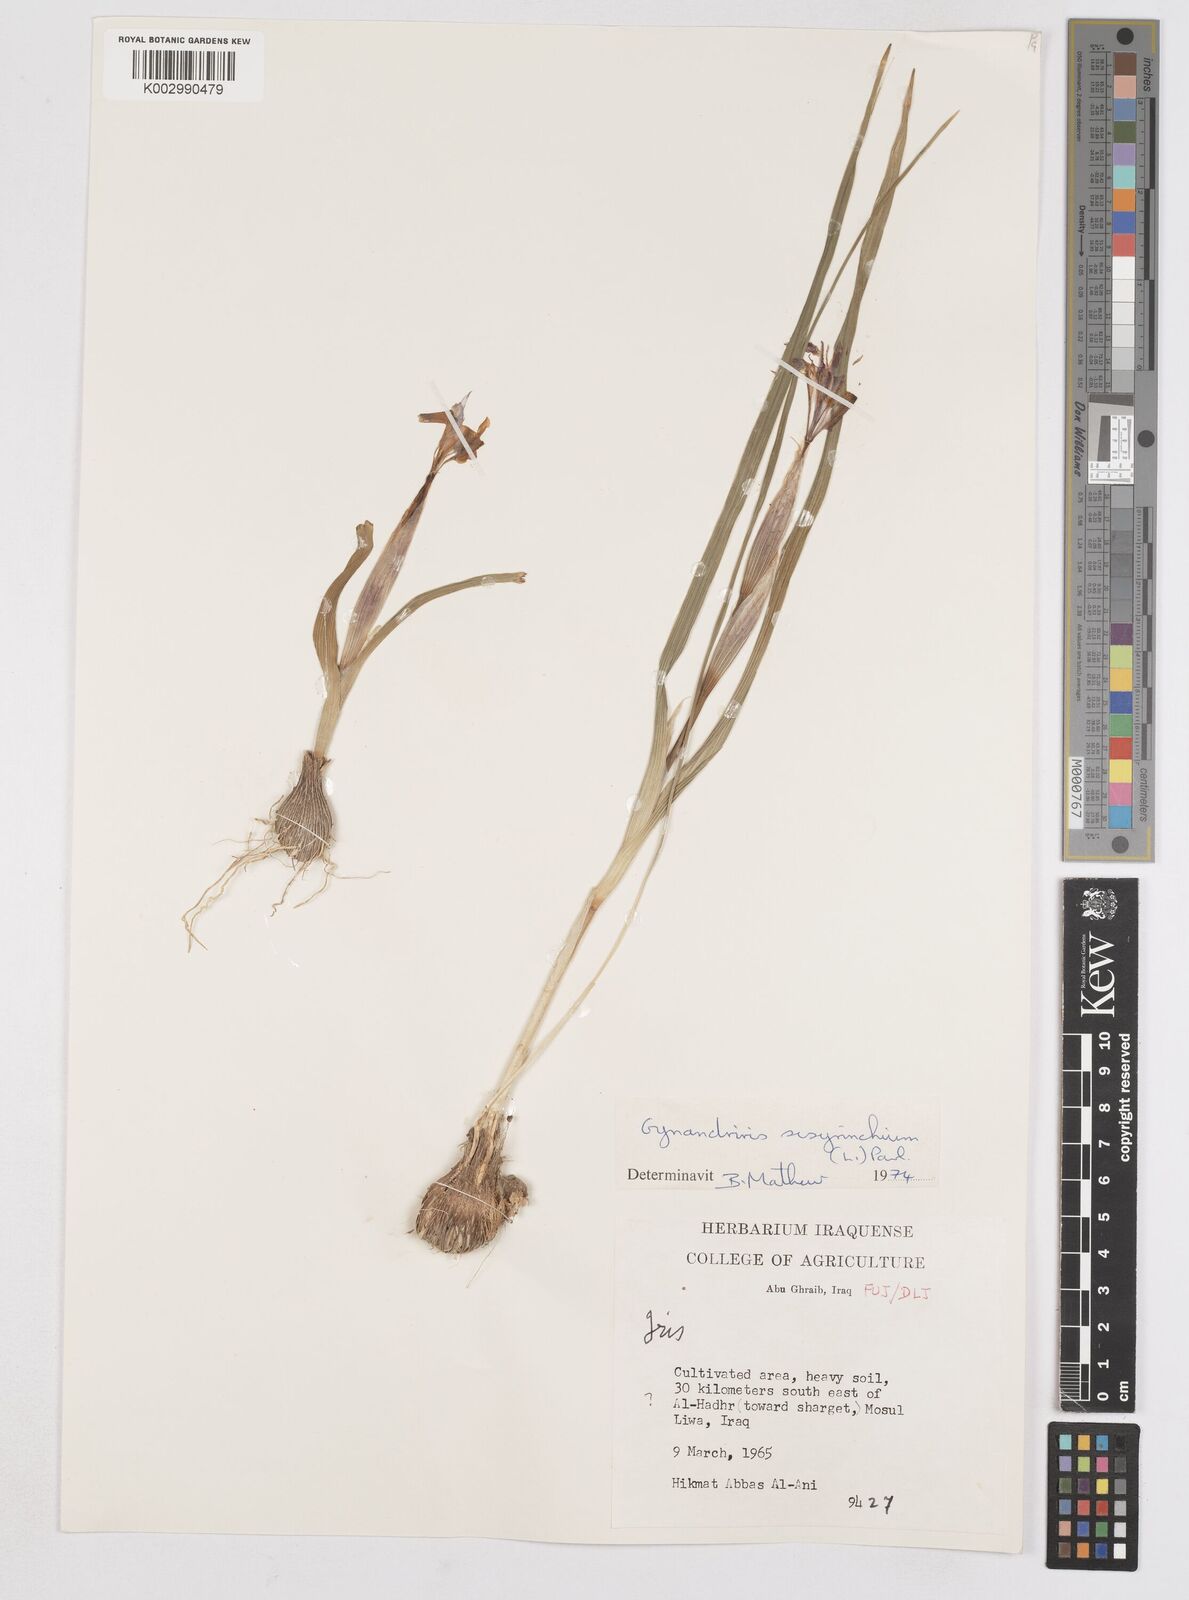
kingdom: Plantae
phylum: Tracheophyta
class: Liliopsida
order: Asparagales
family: Iridaceae
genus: Moraea
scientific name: Moraea sisyrinchium
